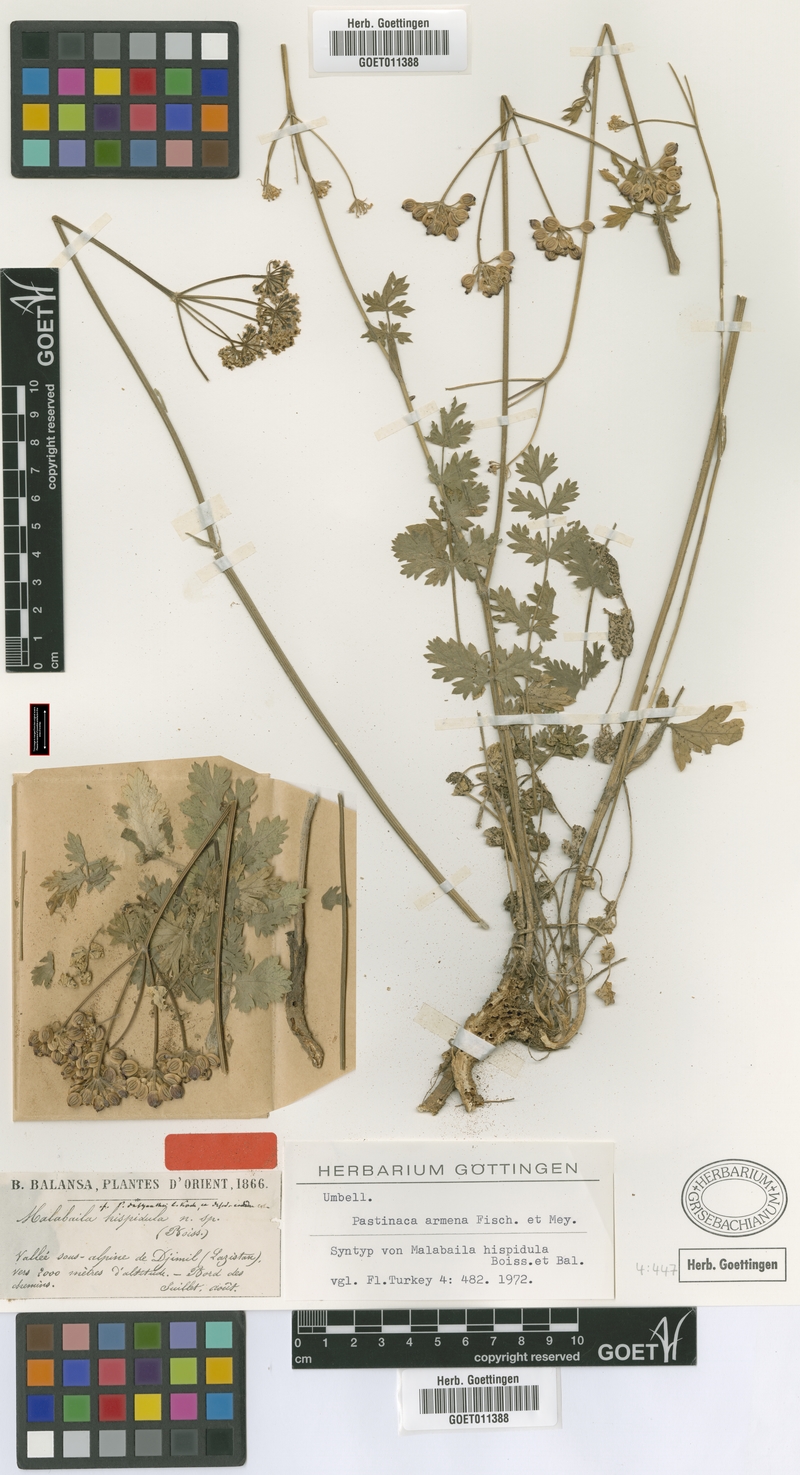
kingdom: Plantae
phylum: Tracheophyta
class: Magnoliopsida
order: Apiales
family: Apiaceae
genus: Pastinaca
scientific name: Pastinaca armena
